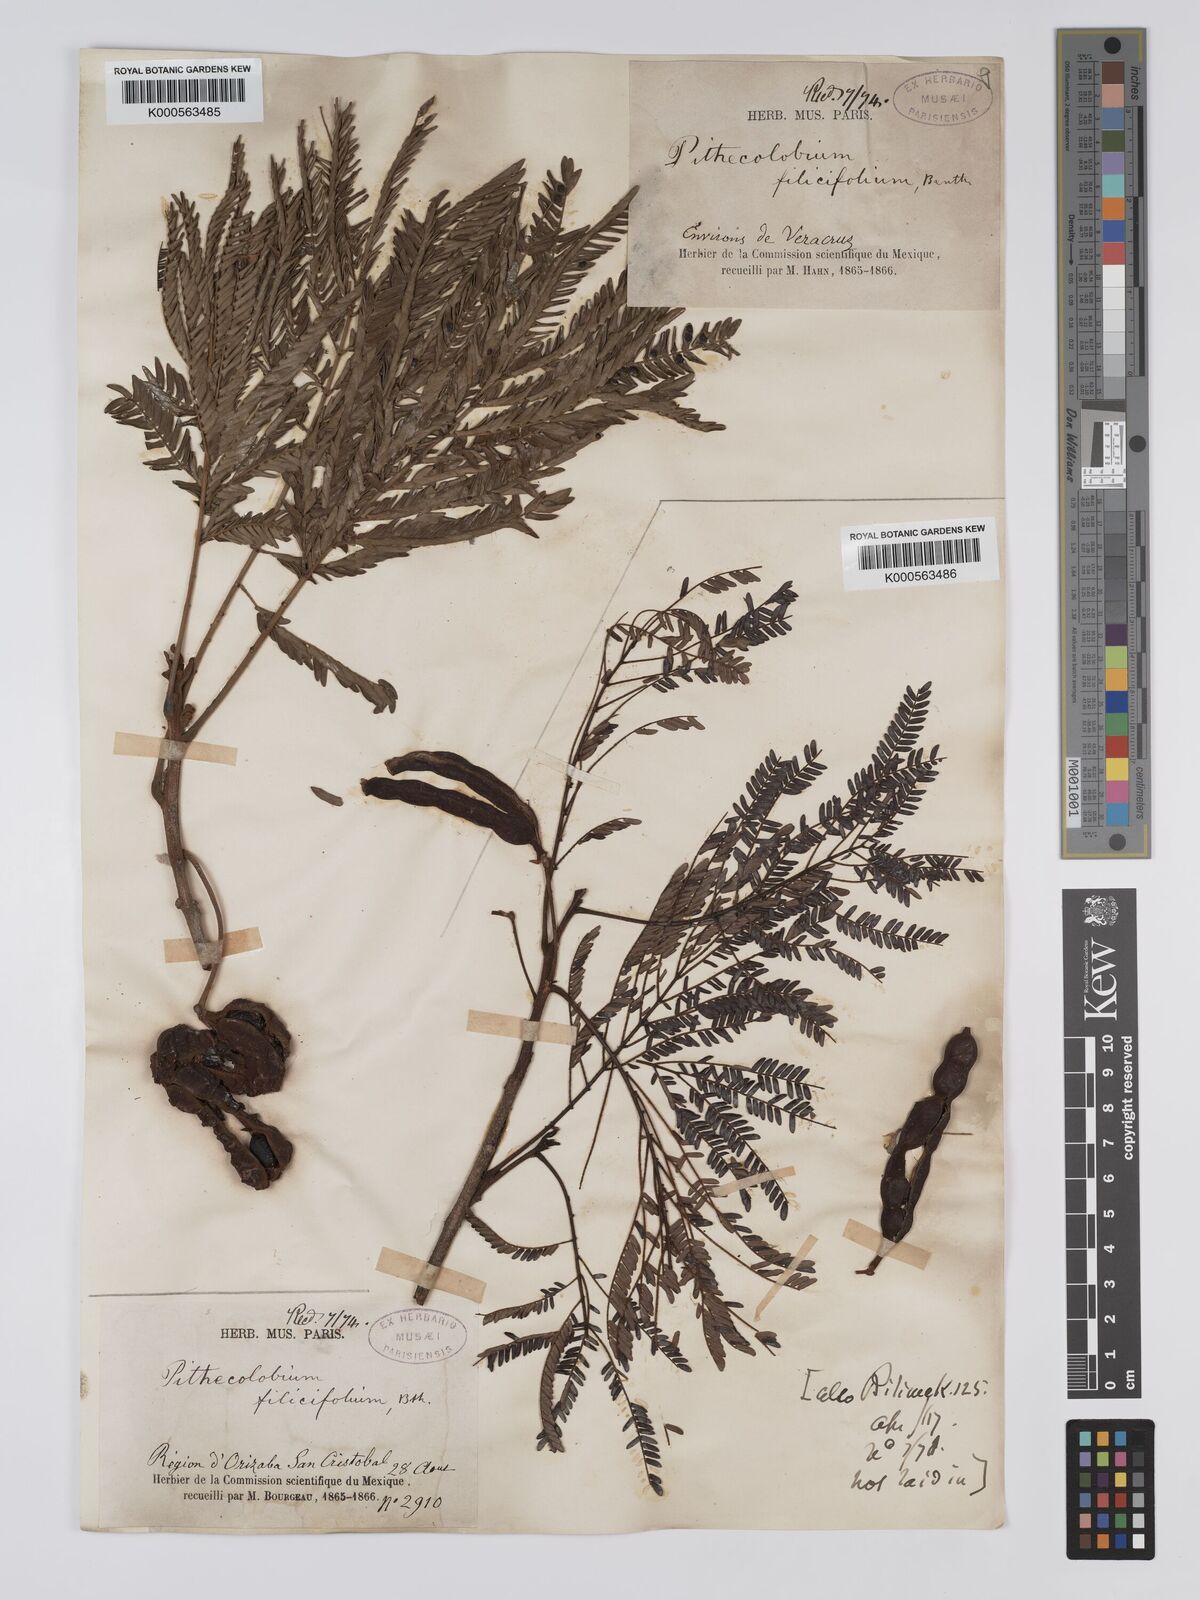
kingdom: Plantae
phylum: Tracheophyta
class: Magnoliopsida
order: Fabales
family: Fabaceae
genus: Cojoba
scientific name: Cojoba arborea
